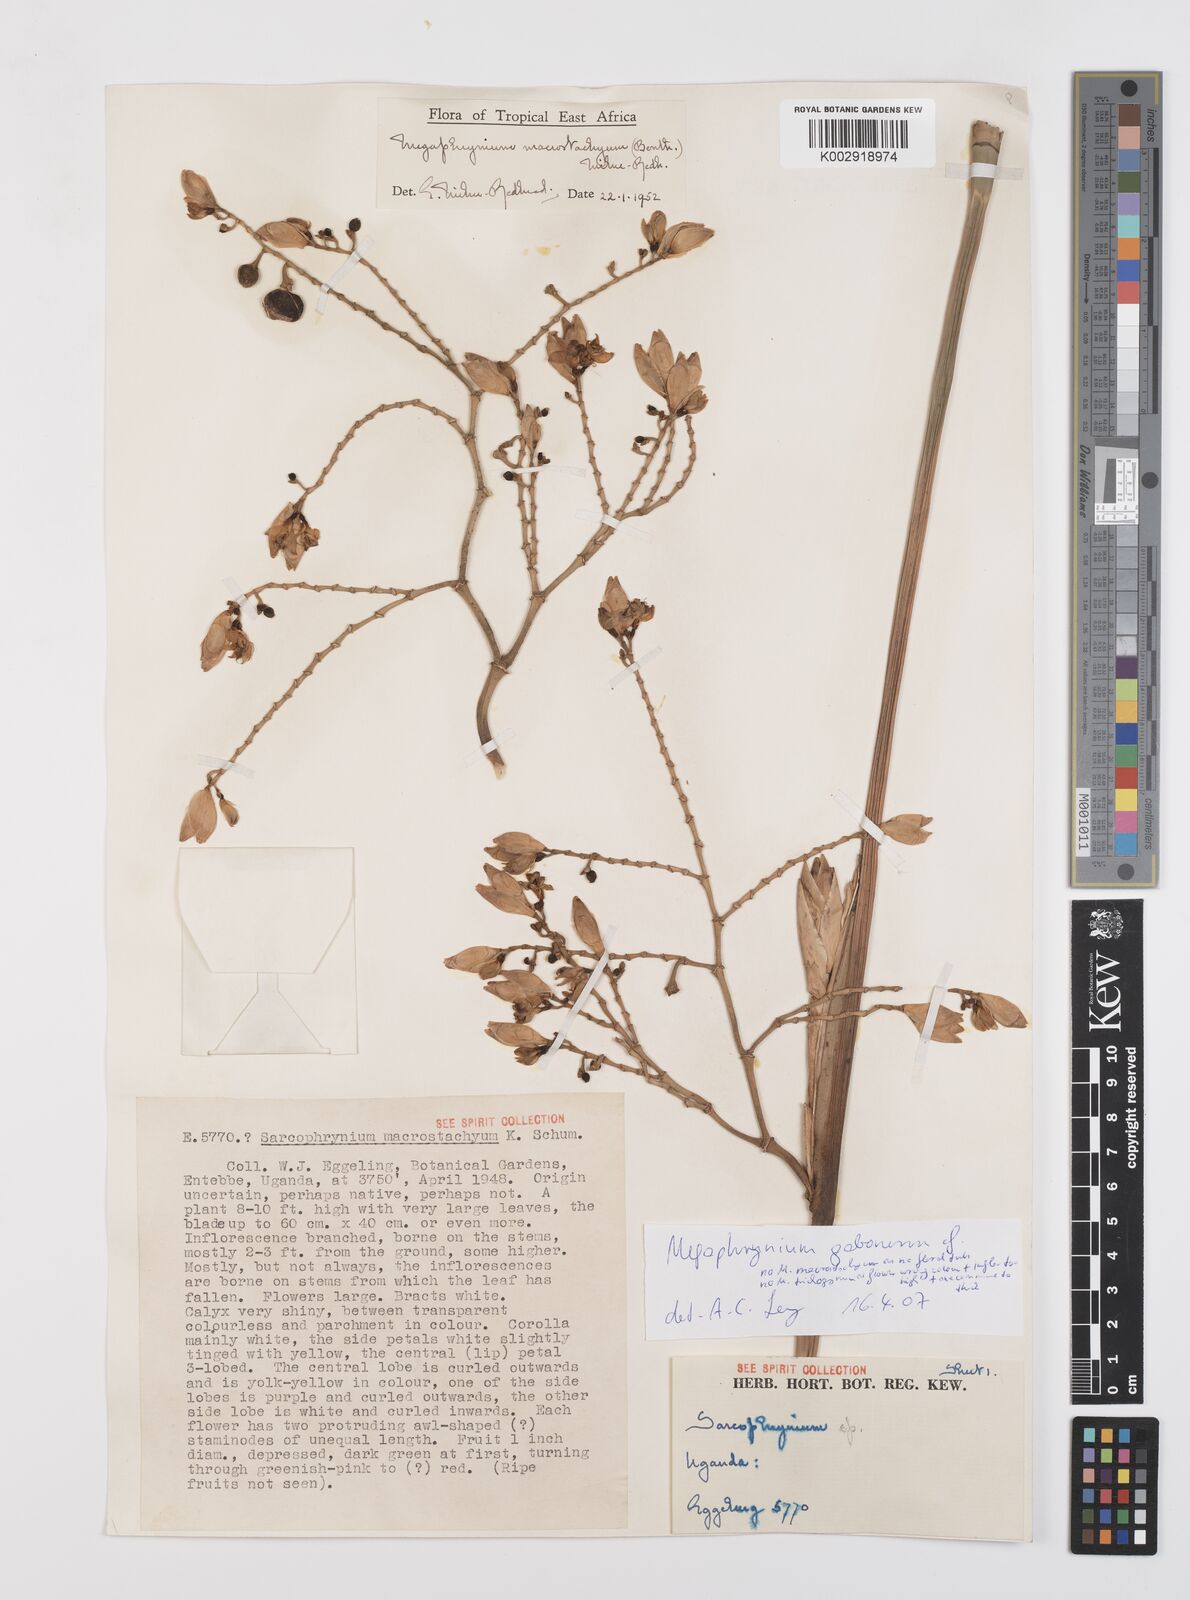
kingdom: Plantae
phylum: Tracheophyta
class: Liliopsida
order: Zingiberales
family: Marantaceae
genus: Megaphrynium
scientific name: Megaphrynium gabonense
